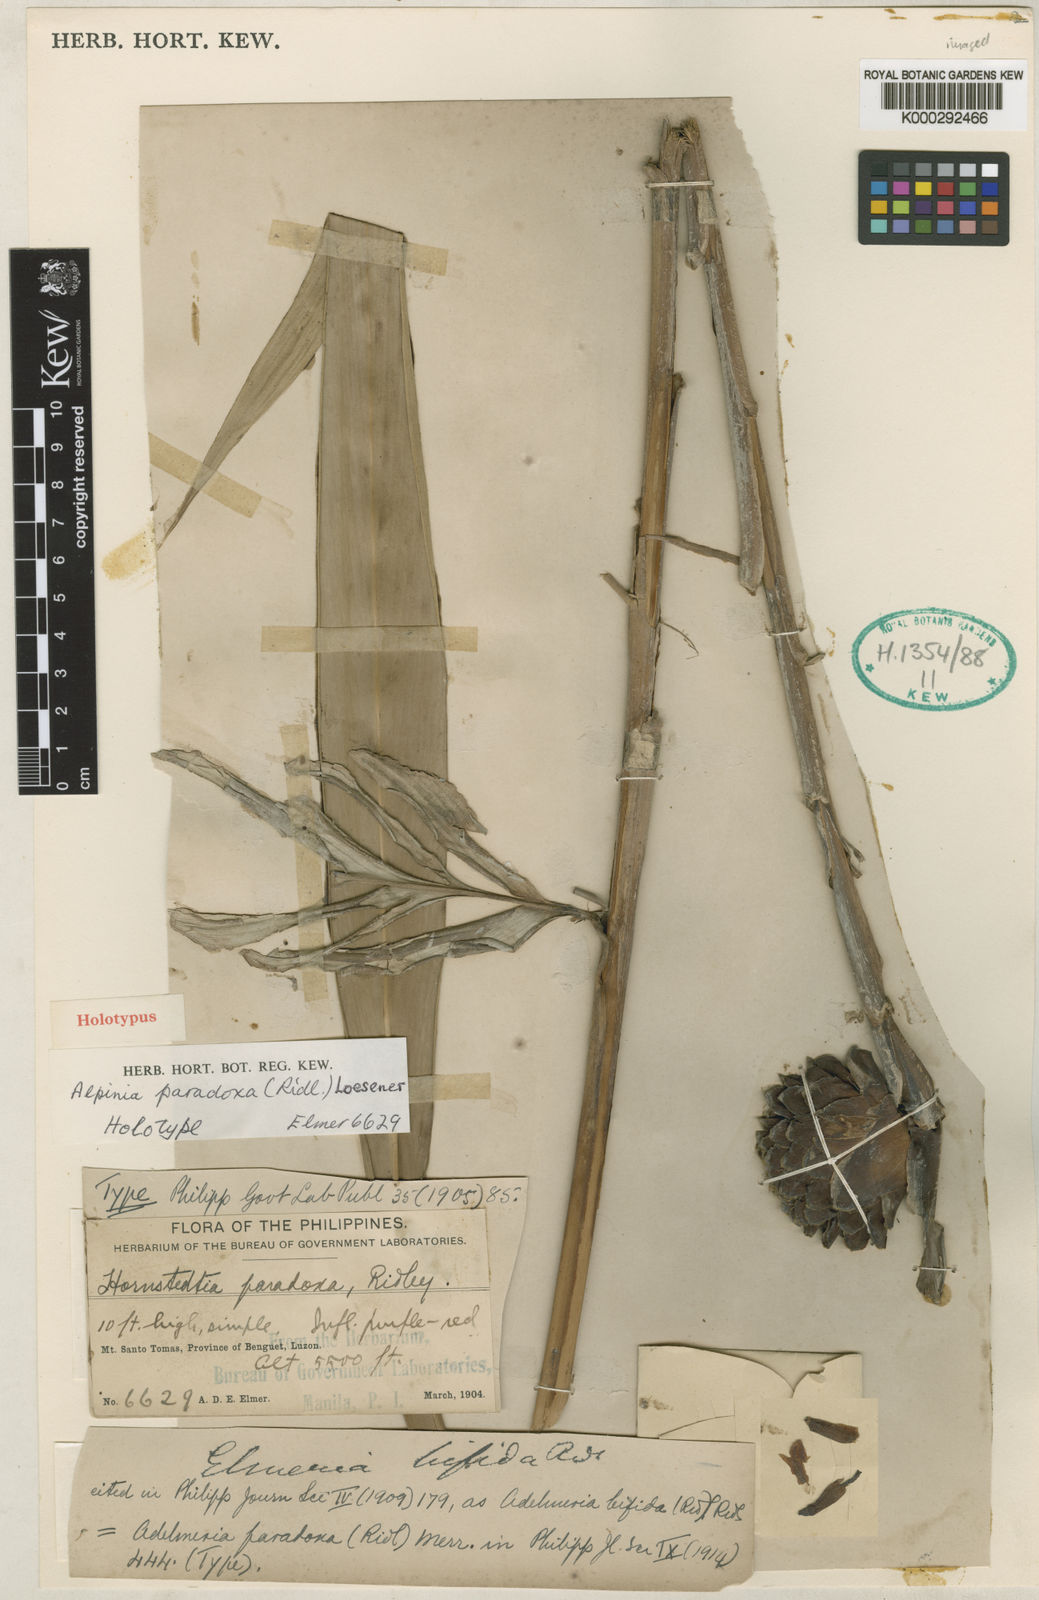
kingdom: Plantae
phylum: Tracheophyta
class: Liliopsida
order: Zingiberales
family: Zingiberaceae
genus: Adelmeria
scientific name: Adelmeria paradoxa
